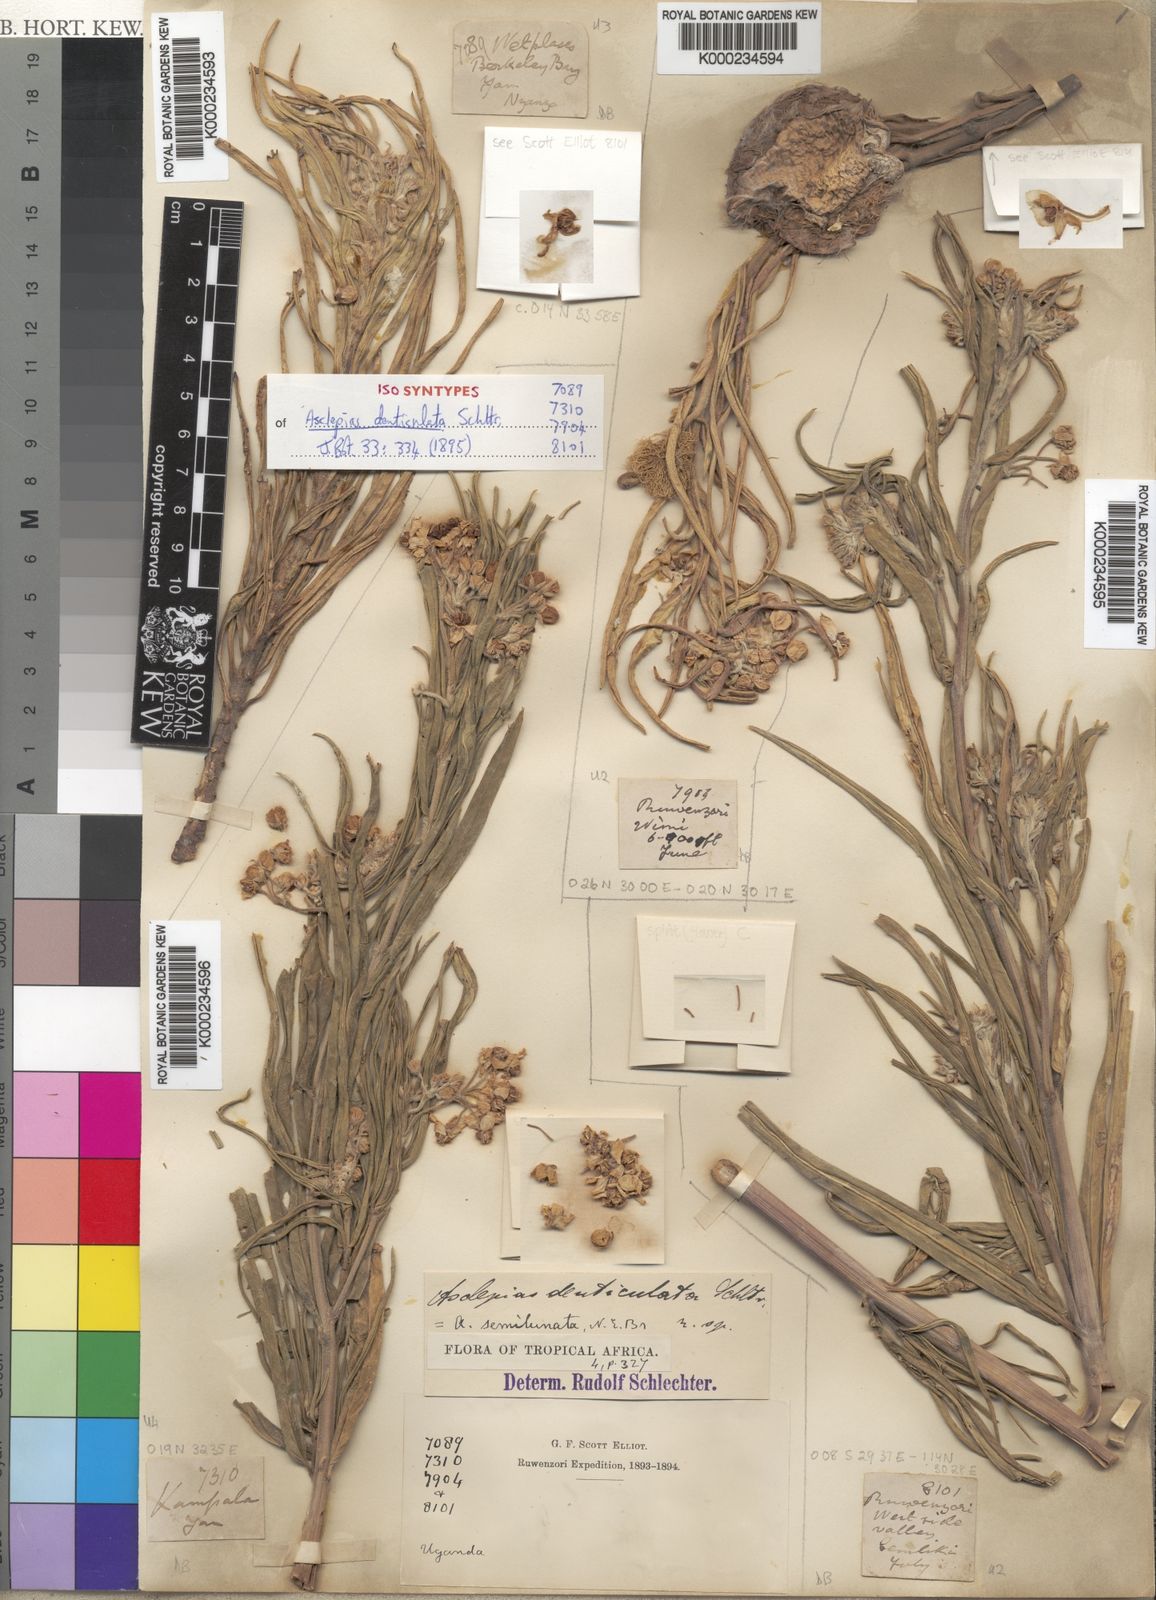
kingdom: Plantae
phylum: Tracheophyta
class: Magnoliopsida
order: Gentianales
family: Apocynaceae
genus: Gomphocarpus
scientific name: Gomphocarpus semilunatus
